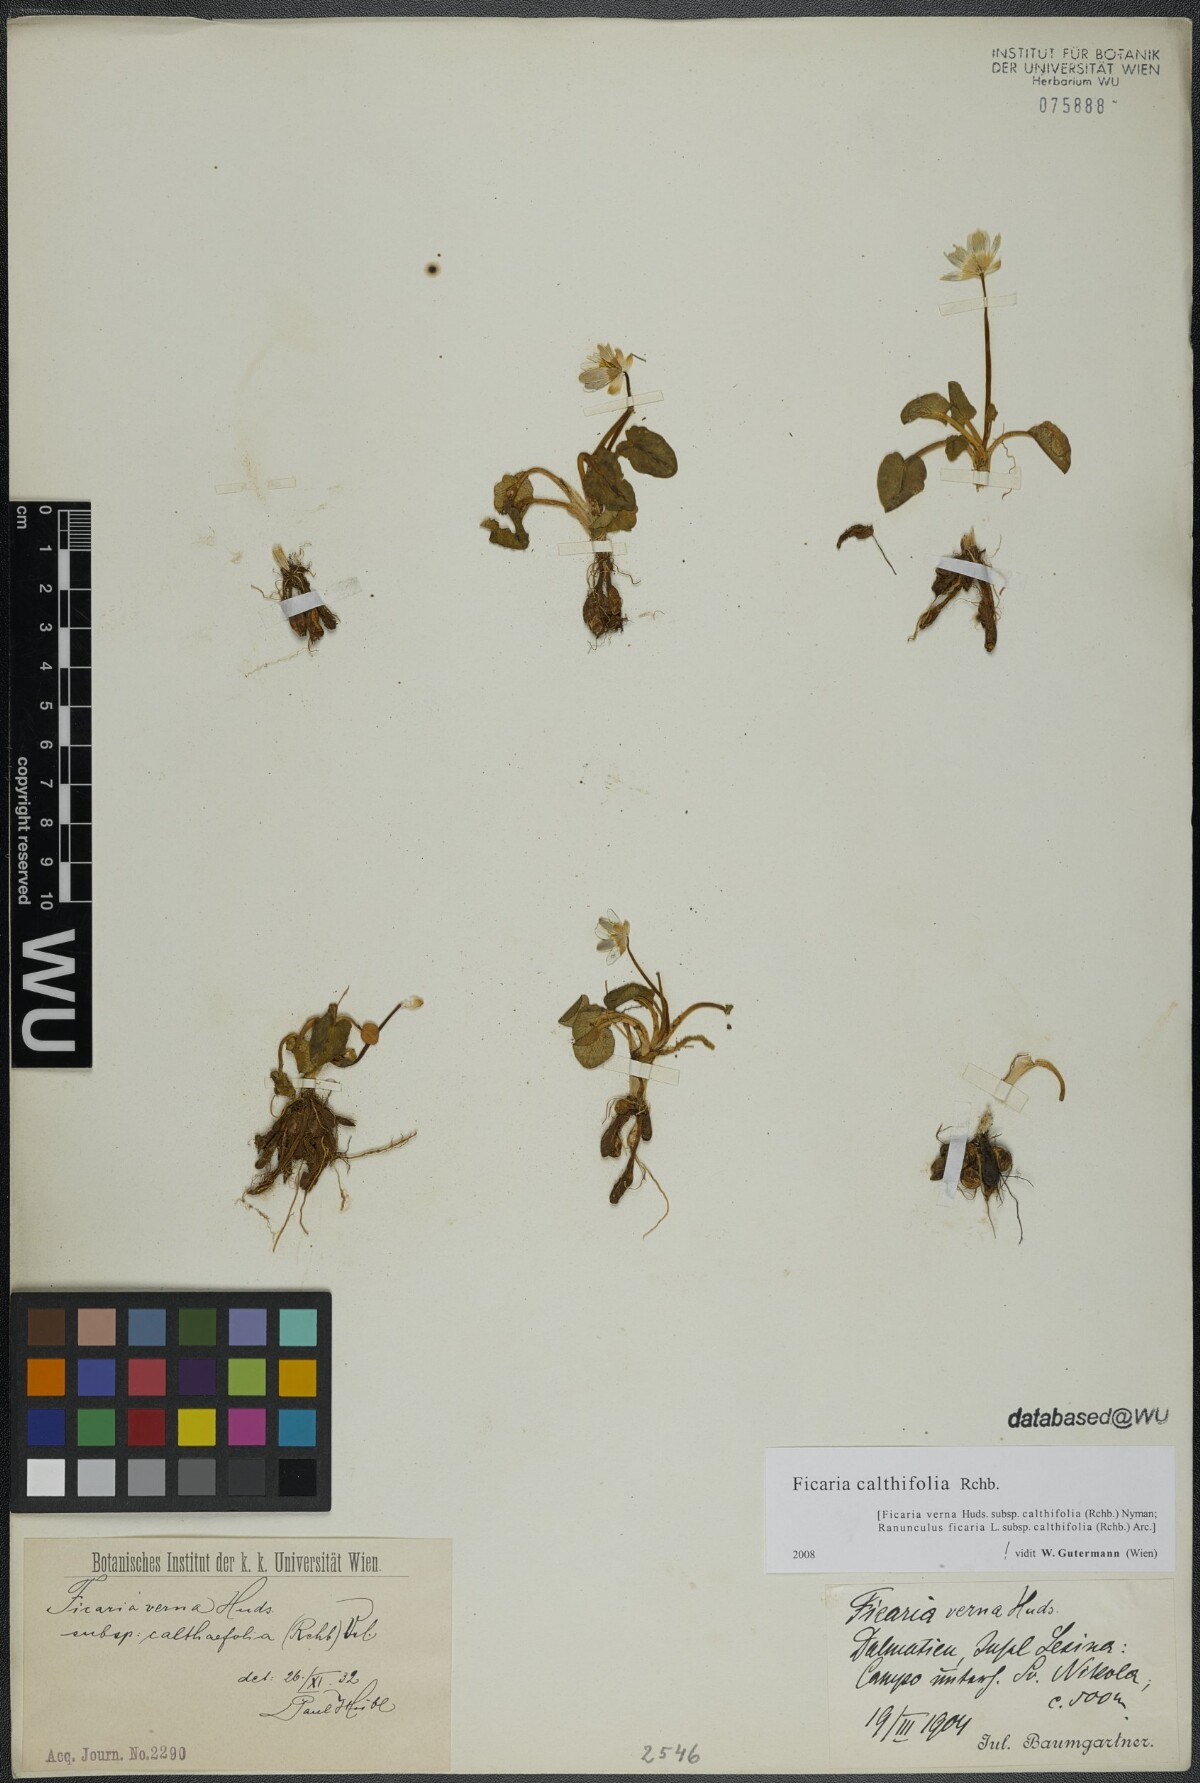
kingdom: Plantae
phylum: Tracheophyta
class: Magnoliopsida
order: Ranunculales
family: Ranunculaceae
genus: Ficaria
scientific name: Ficaria calthifolia
